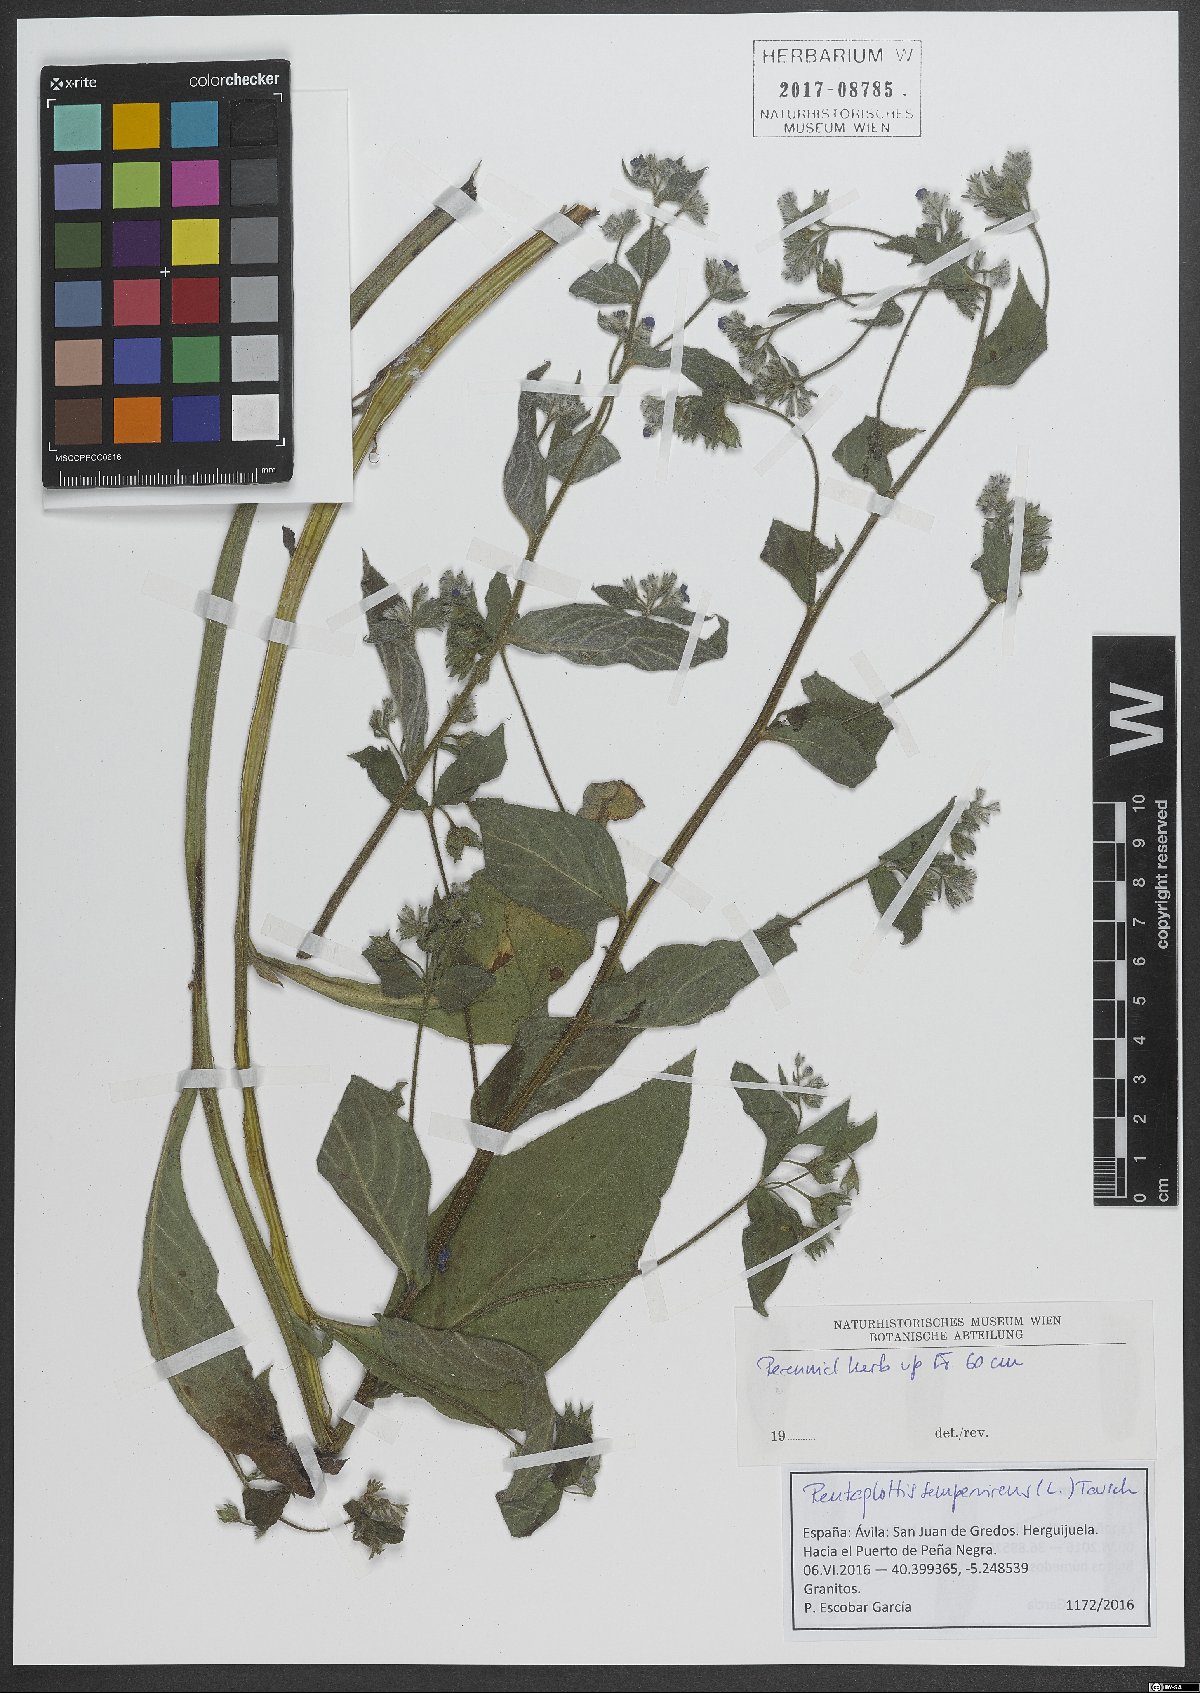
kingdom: Plantae
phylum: Tracheophyta
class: Magnoliopsida
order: Boraginales
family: Boraginaceae
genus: Pentaglottis
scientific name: Pentaglottis sempervirens
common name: Green alkanet
